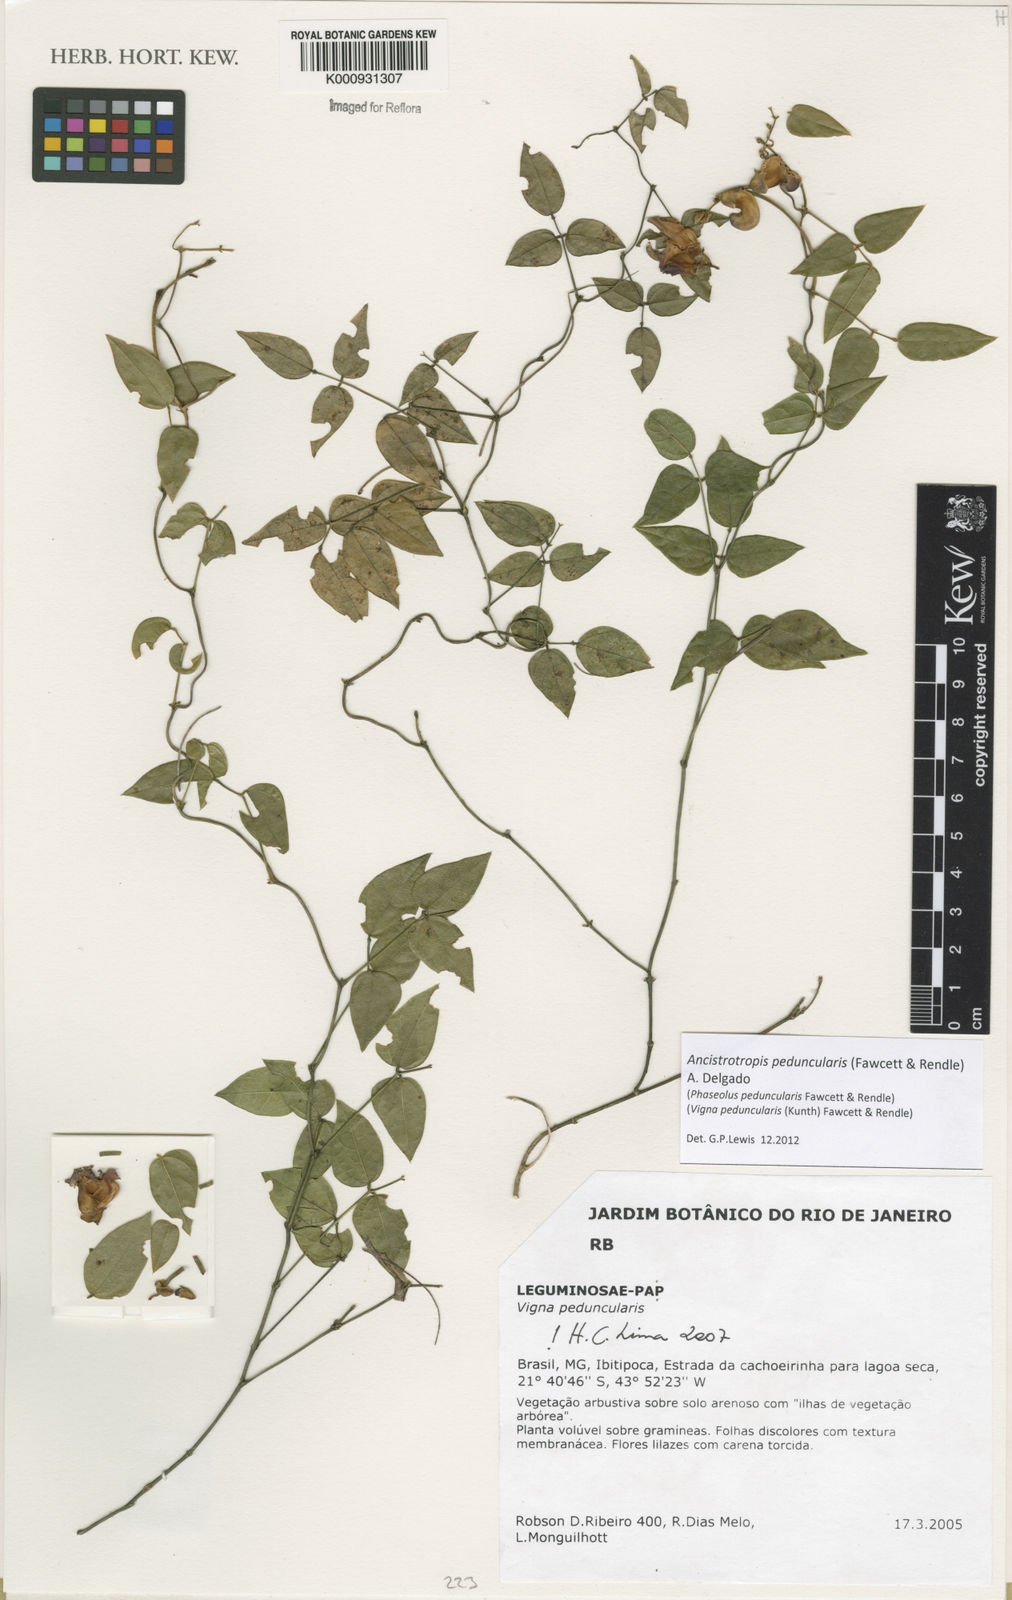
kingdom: Plantae
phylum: Tracheophyta
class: Magnoliopsida
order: Fabales
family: Fabaceae
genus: Ancistrotropis
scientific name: Ancistrotropis peduncularis
